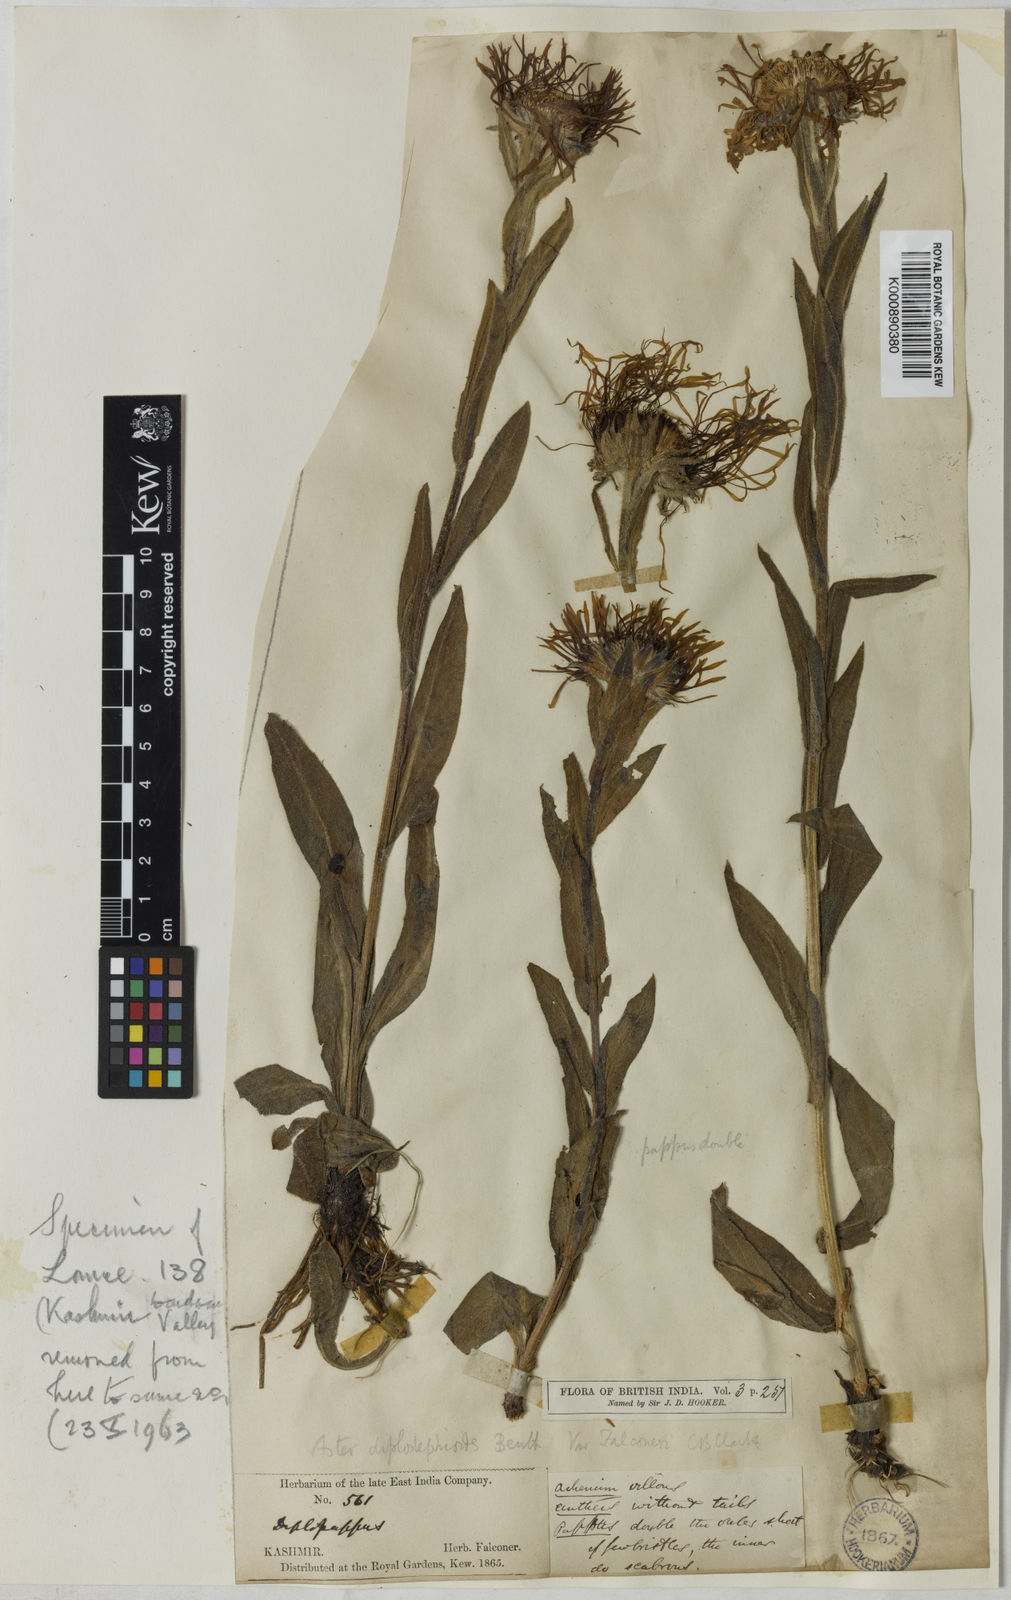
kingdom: Plantae
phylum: Tracheophyta
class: Magnoliopsida
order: Asterales
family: Asteraceae
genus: Tibetiodes
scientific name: Tibetiodes falconeri
